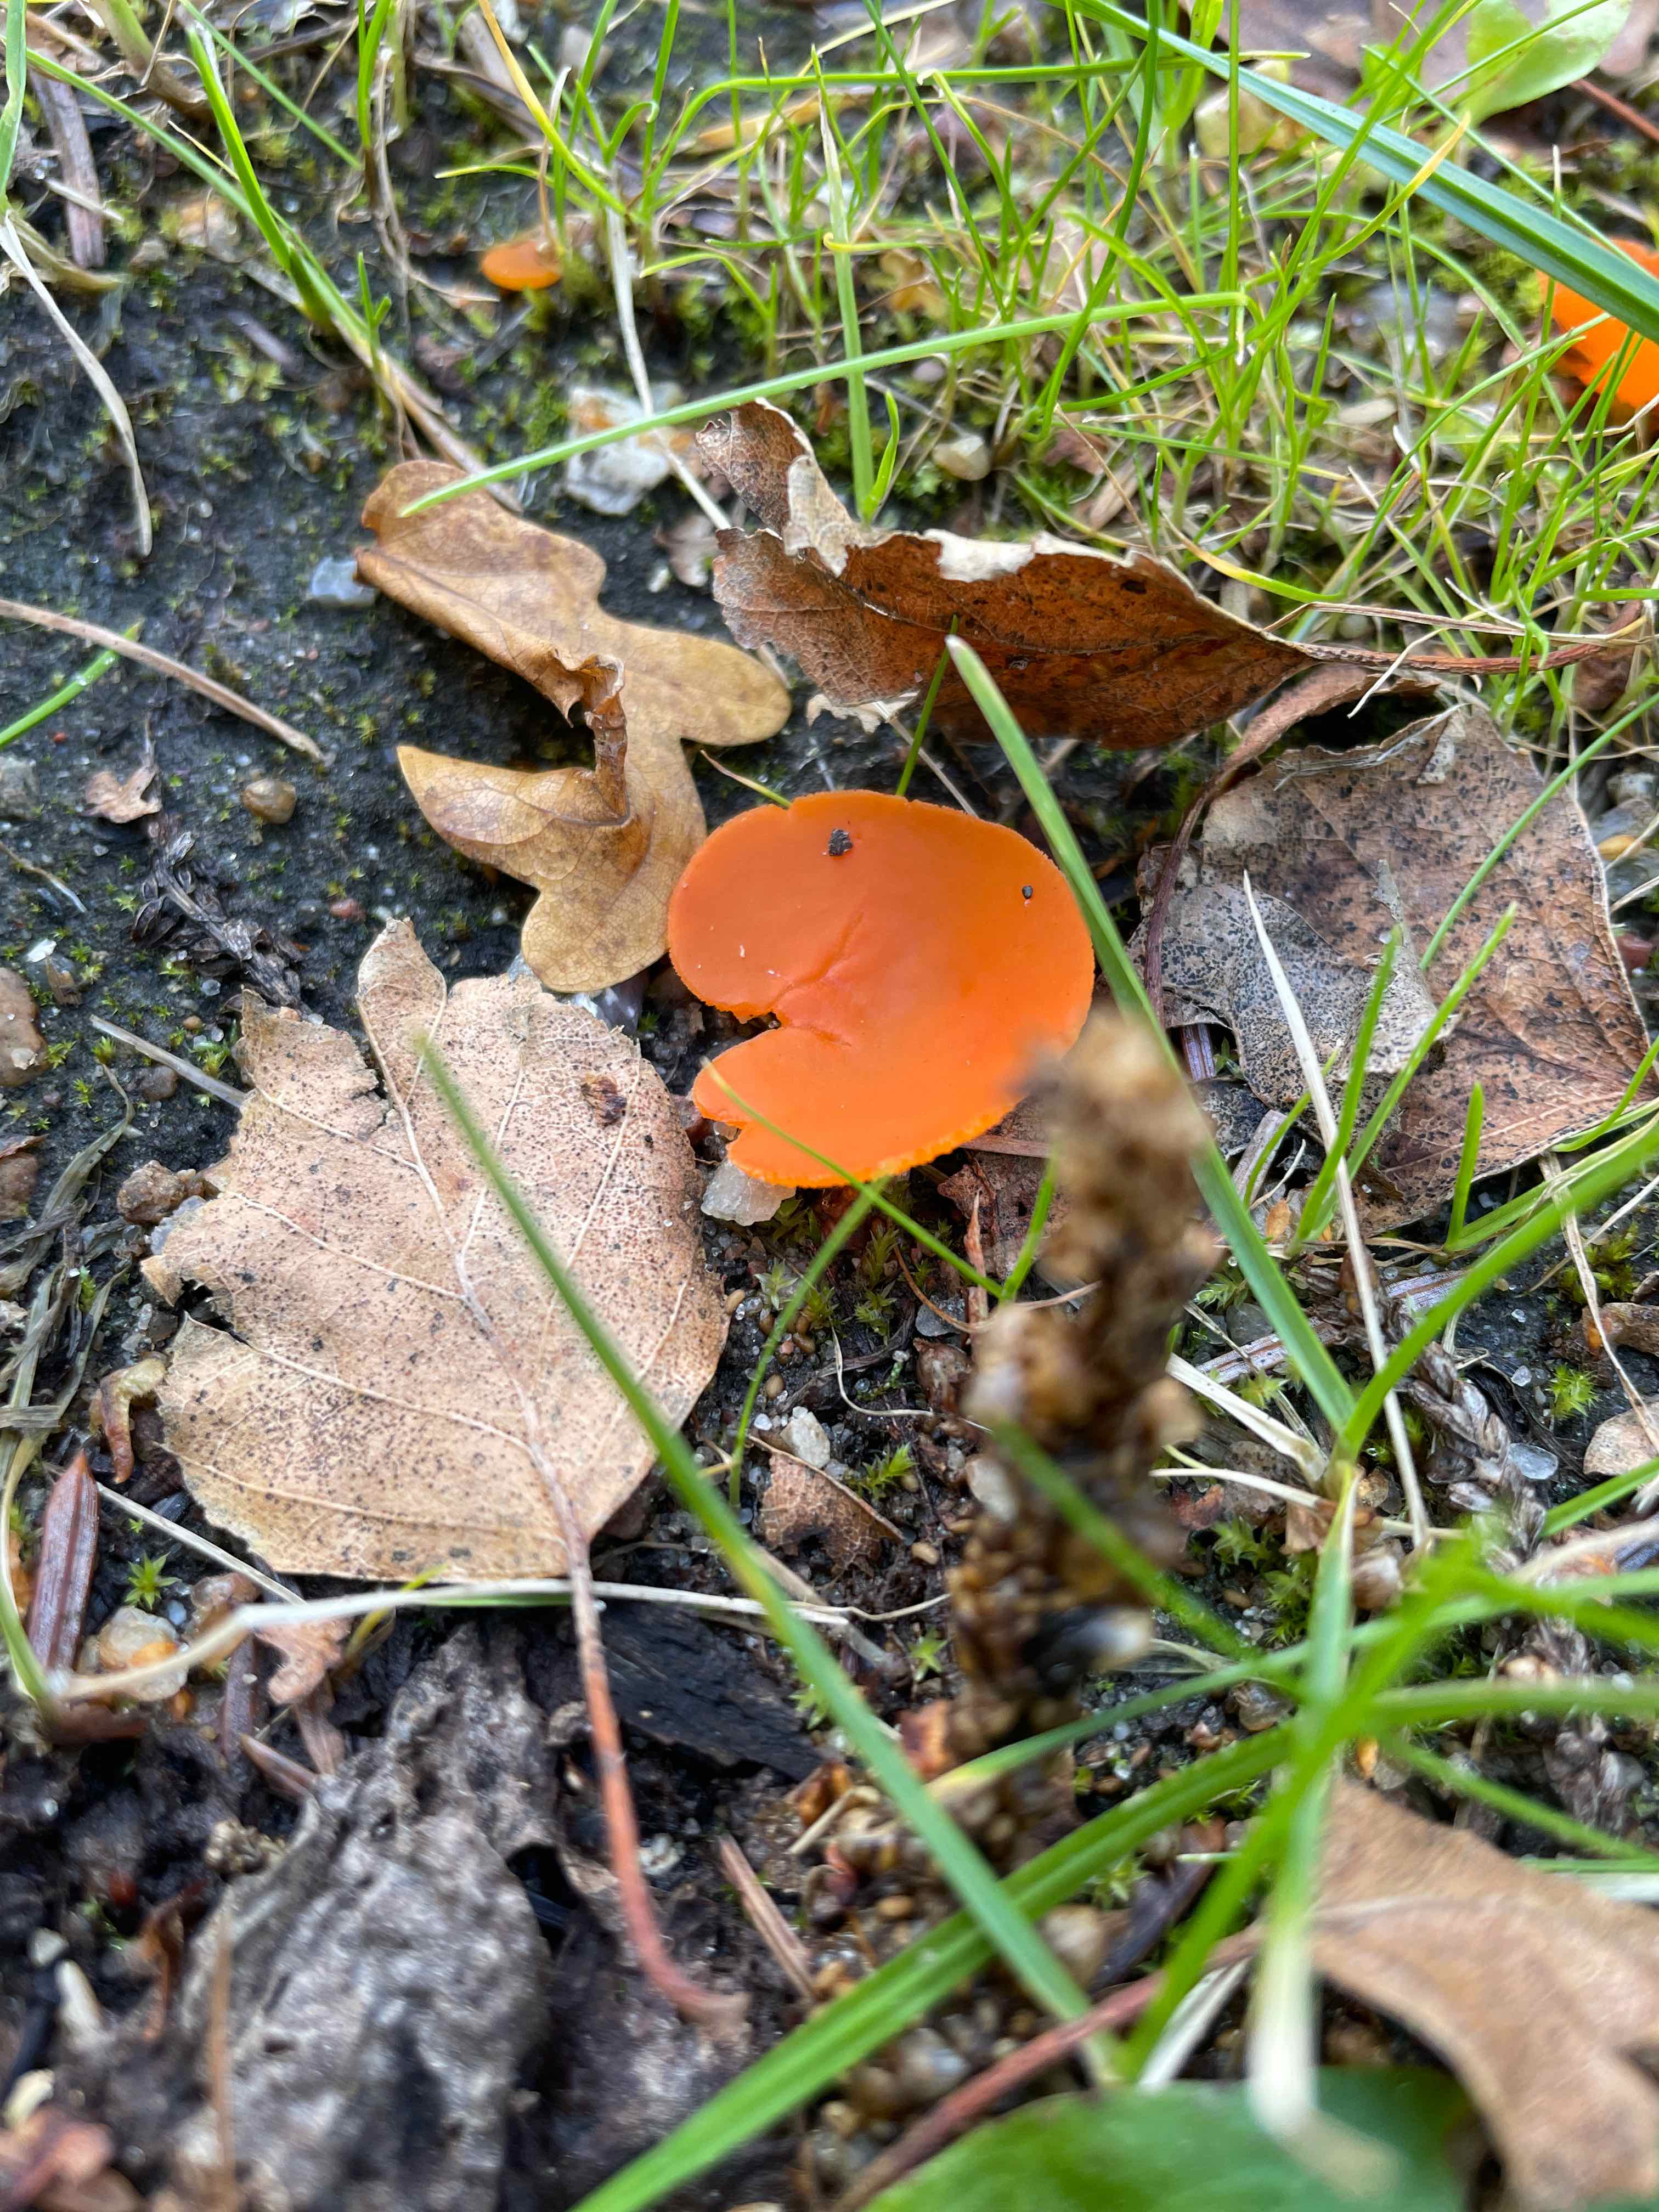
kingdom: Fungi
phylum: Ascomycota
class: Pezizomycetes
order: Pezizales
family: Pyronemataceae
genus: Aleuria
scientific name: Aleuria aurantia
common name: almindelig orangebæger
